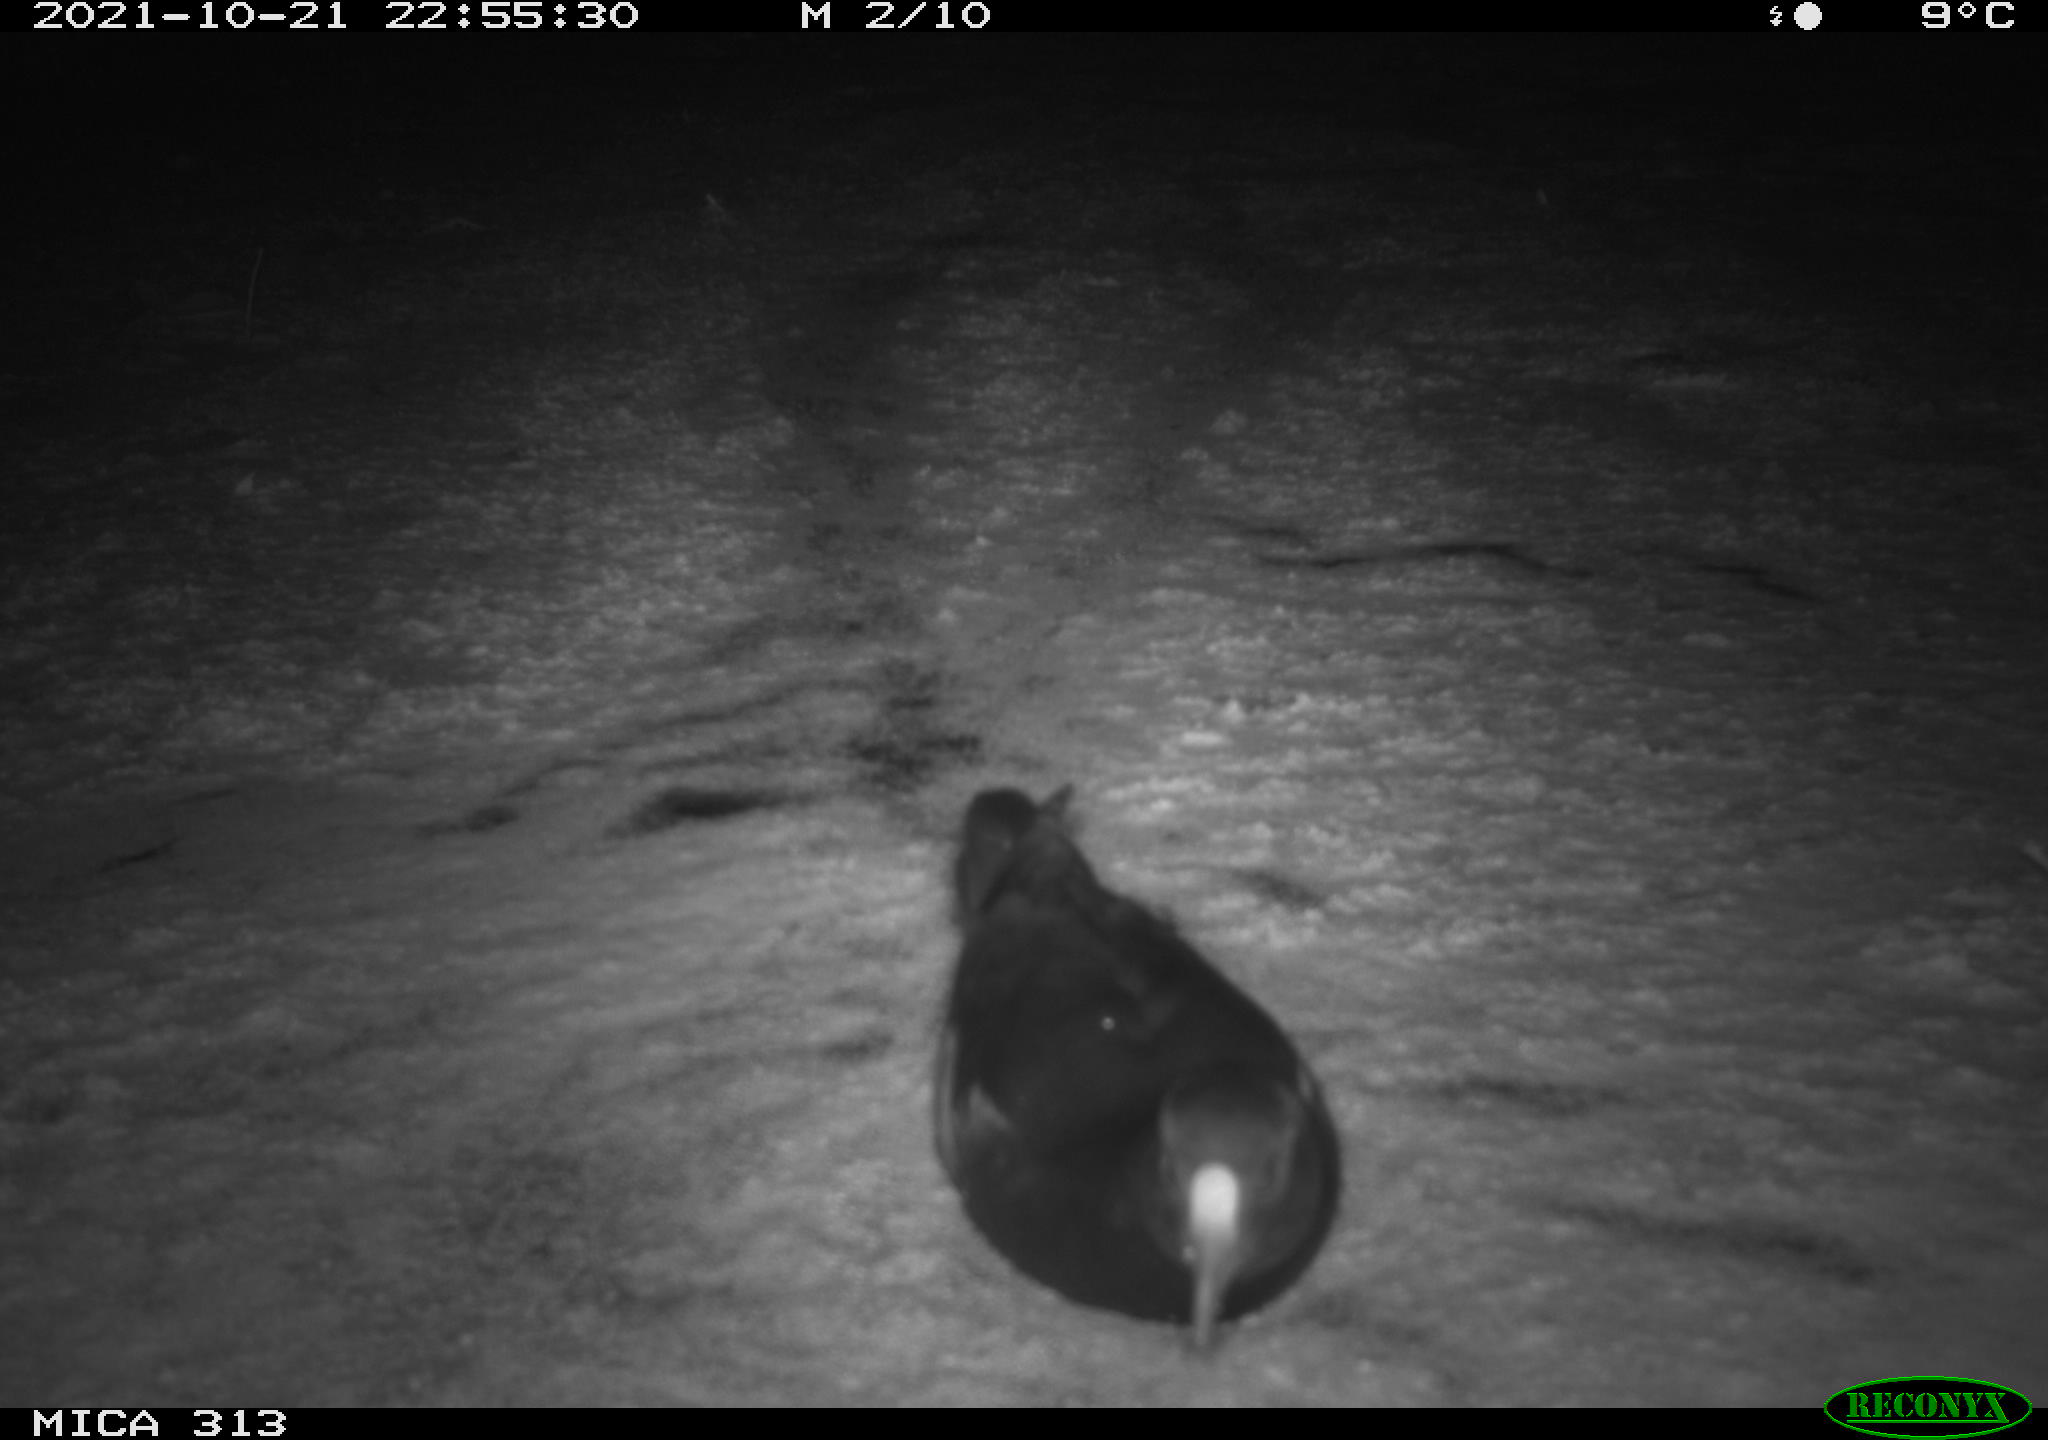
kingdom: Animalia
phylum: Chordata
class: Aves
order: Gruiformes
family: Rallidae
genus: Gallinula
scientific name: Gallinula chloropus
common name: Common moorhen
